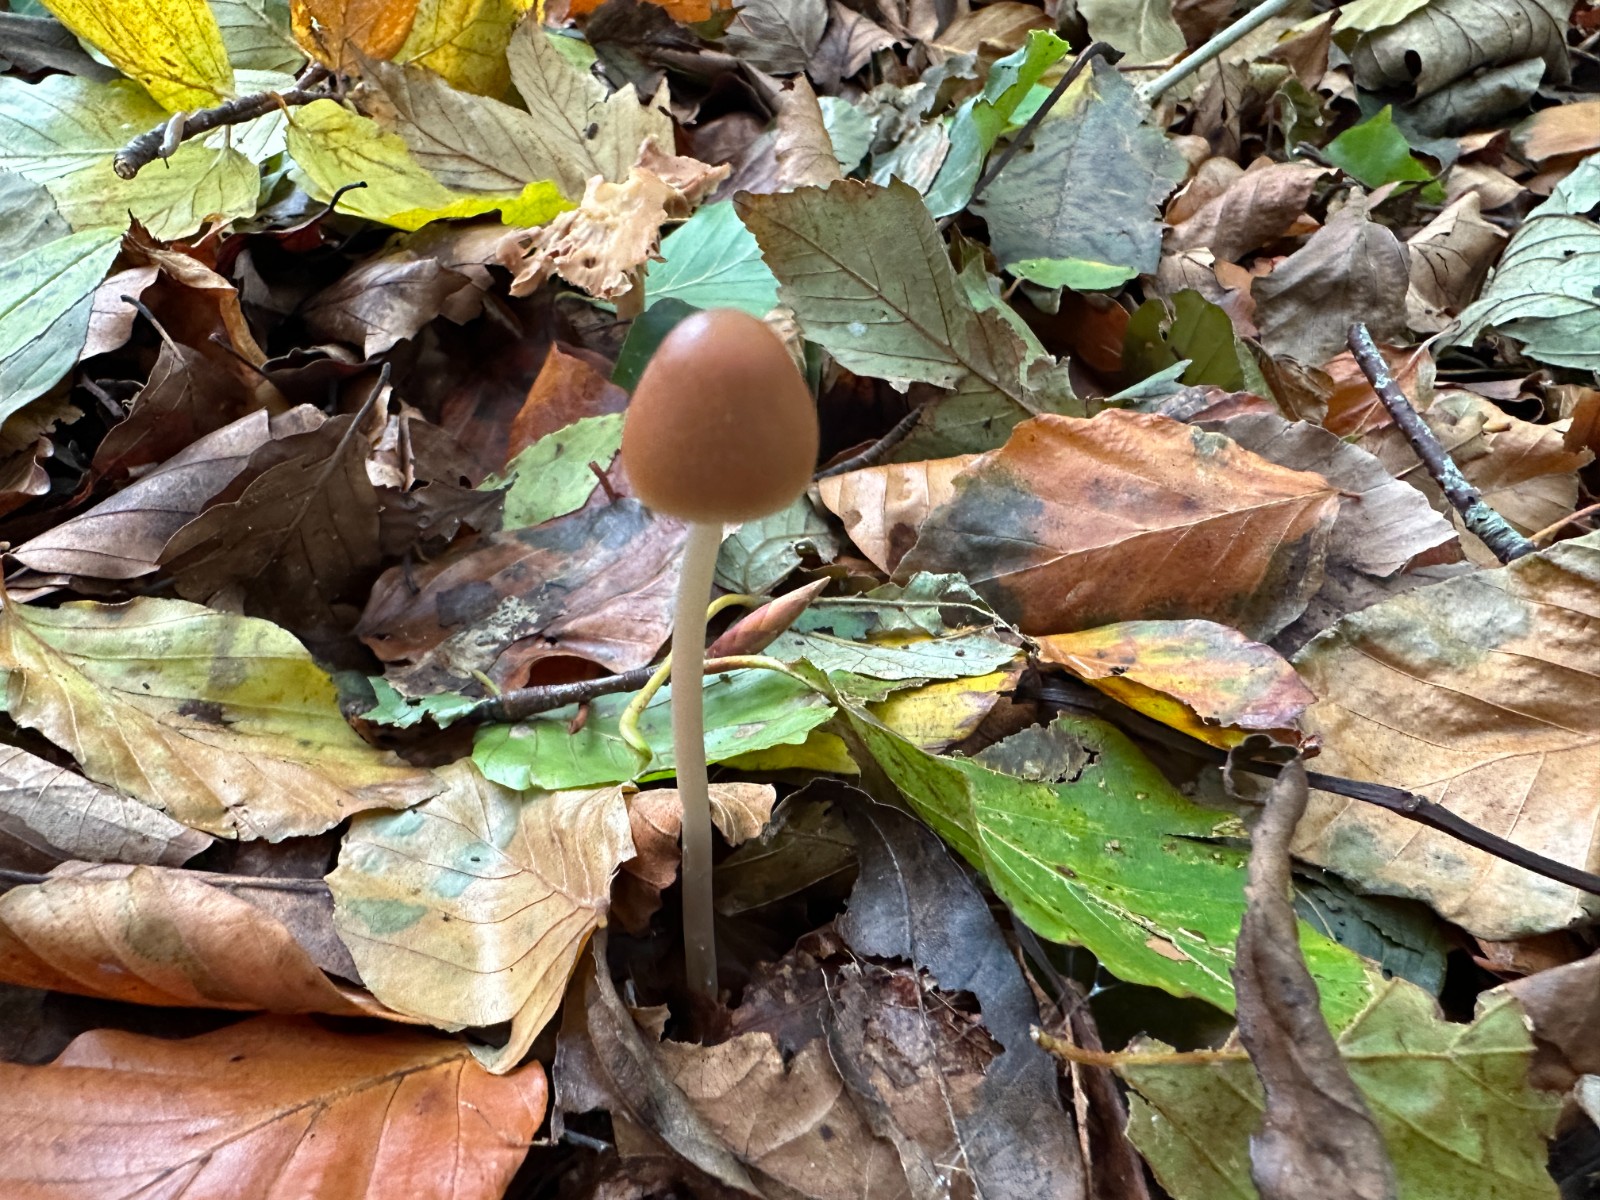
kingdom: Fungi
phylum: Basidiomycota
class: Agaricomycetes
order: Agaricales
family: Psathyrellaceae
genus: Parasola
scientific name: Parasola conopilea
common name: kegle-hjulhat
